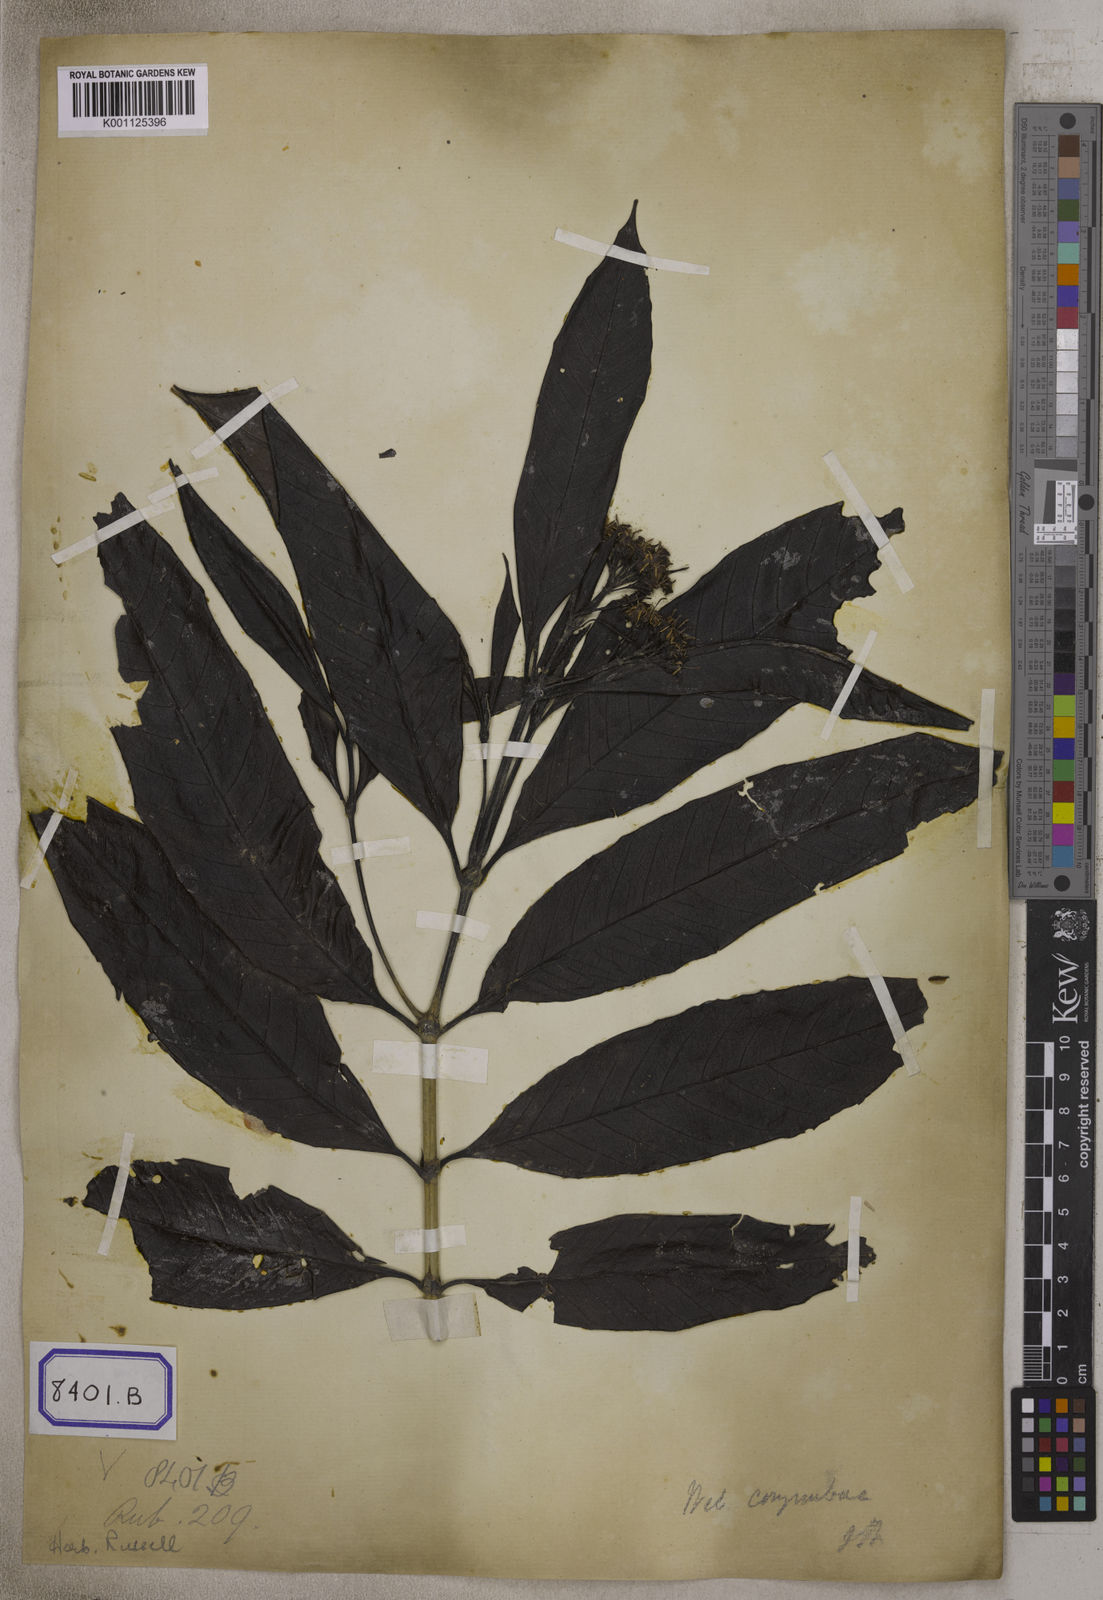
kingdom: Plantae
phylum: Tracheophyta
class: Magnoliopsida
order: Gentianales
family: Rubiaceae
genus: Tarenna
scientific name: Tarenna asiatica
